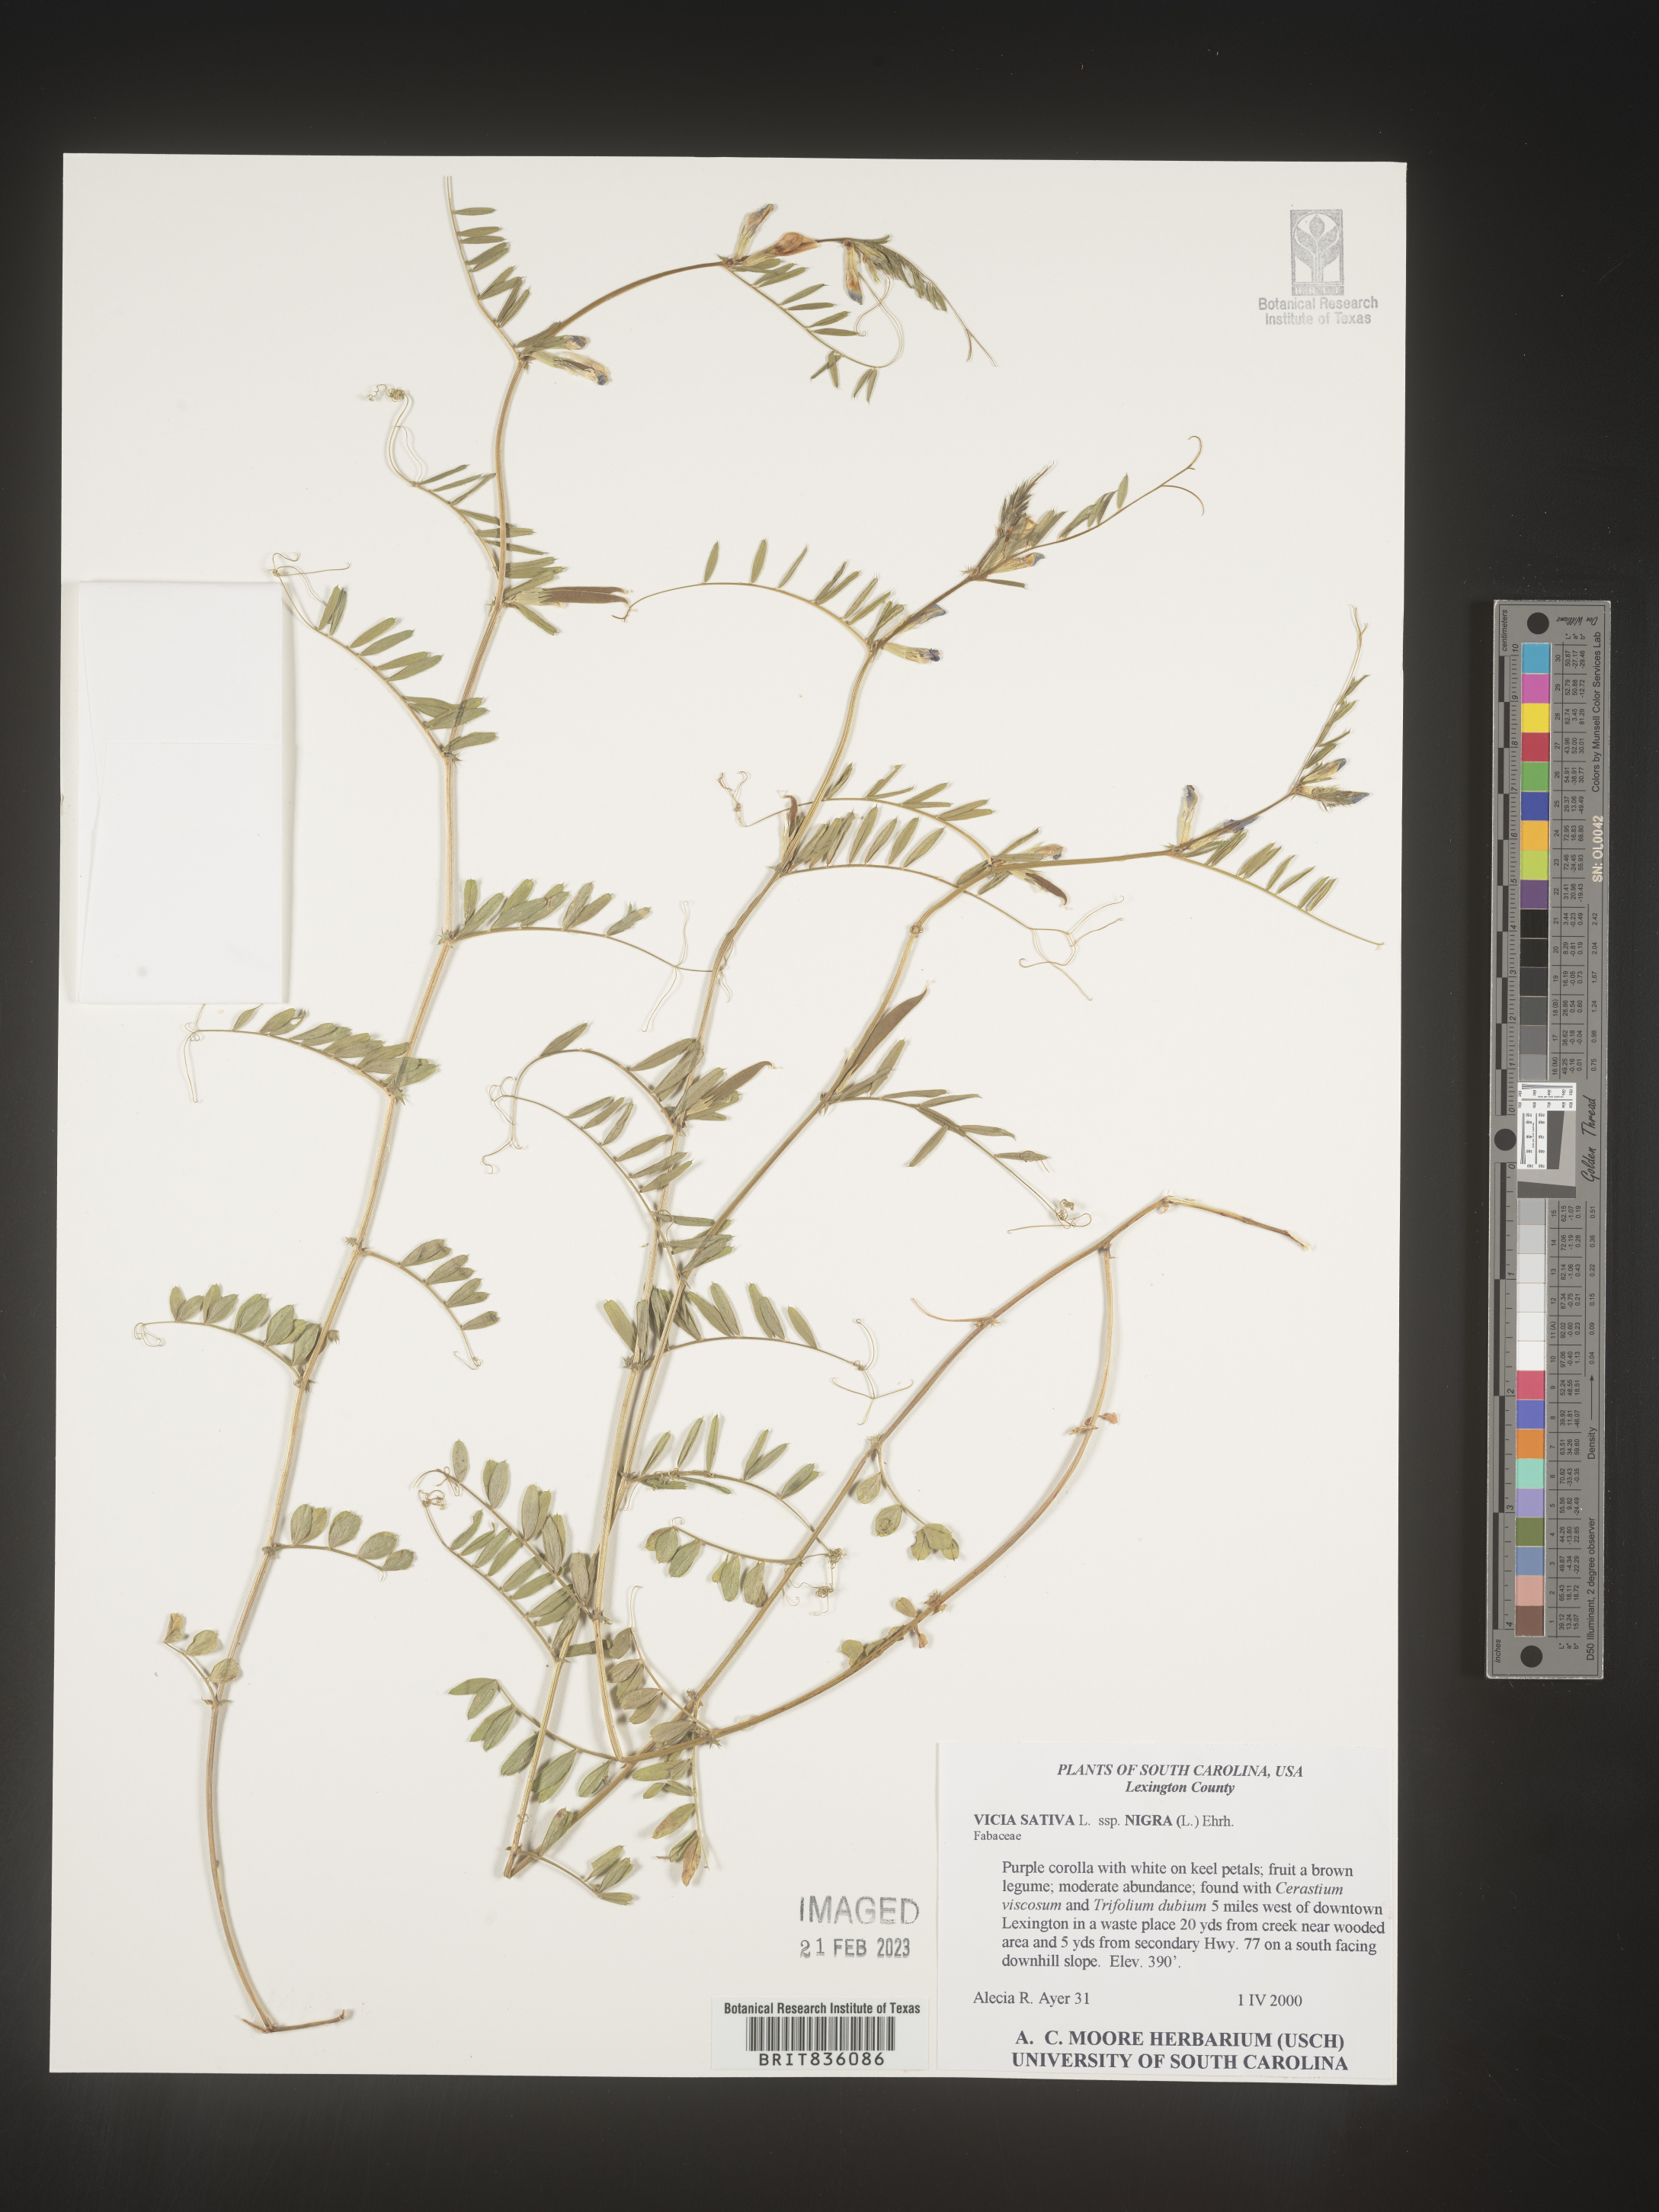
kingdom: Plantae
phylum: Tracheophyta
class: Magnoliopsida
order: Fabales
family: Fabaceae
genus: Vicia
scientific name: Vicia sativa
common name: Garden vetch
